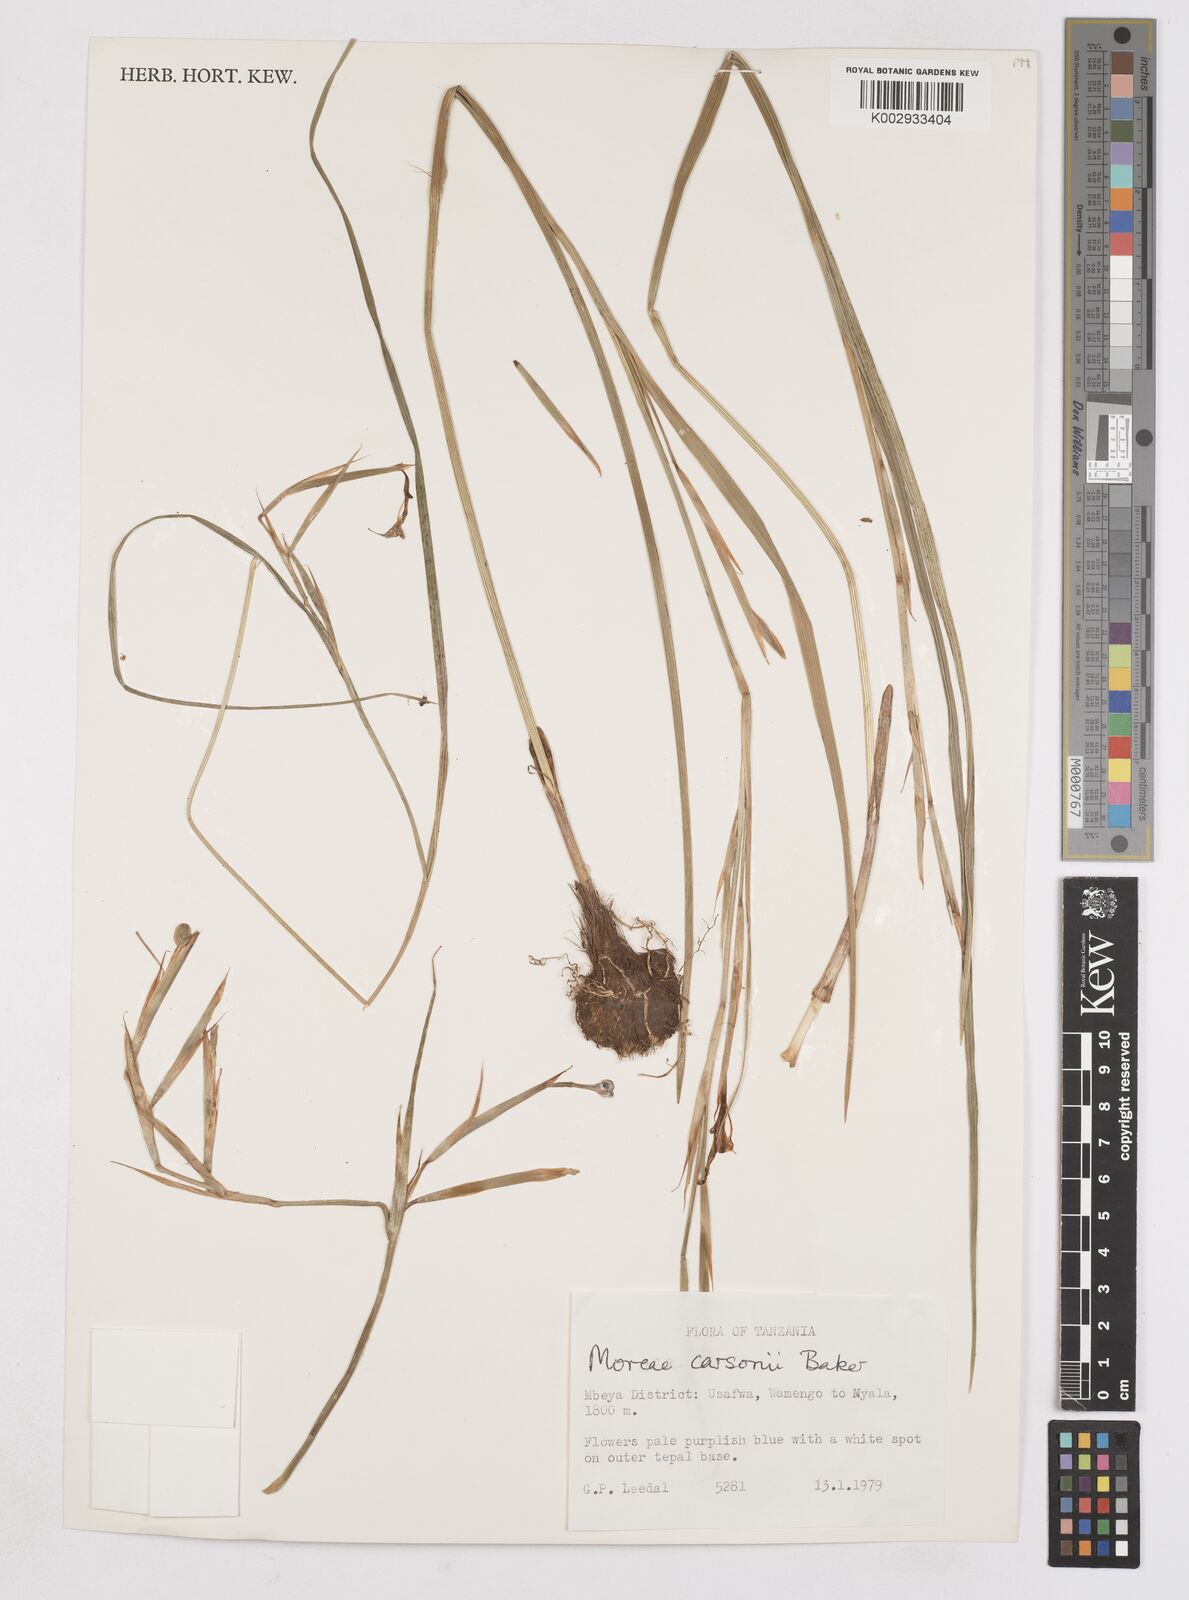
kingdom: Plantae
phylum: Tracheophyta
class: Liliopsida
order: Asparagales
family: Iridaceae
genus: Moraea
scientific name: Moraea carsonii
